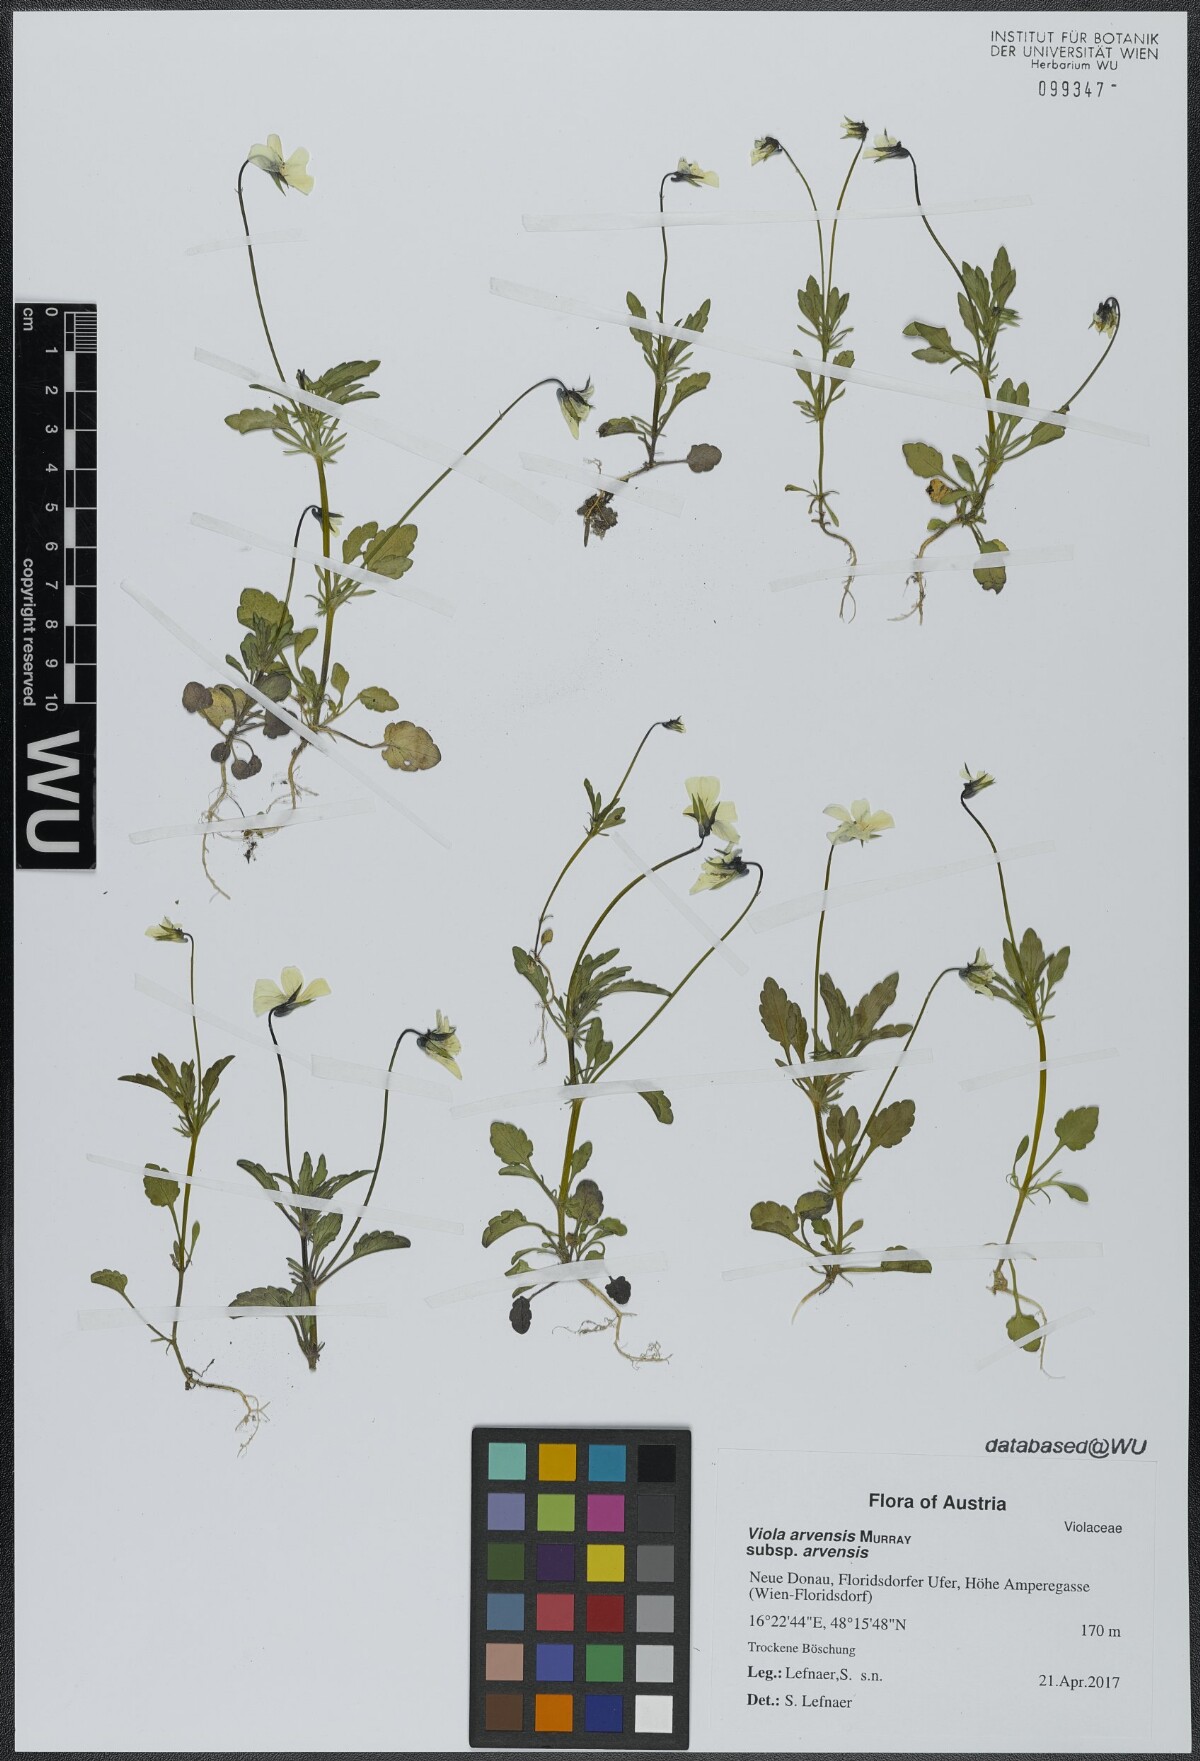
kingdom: Plantae
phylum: Tracheophyta
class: Magnoliopsida
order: Malpighiales
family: Violaceae
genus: Viola
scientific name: Viola arvensis
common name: Field pansy
